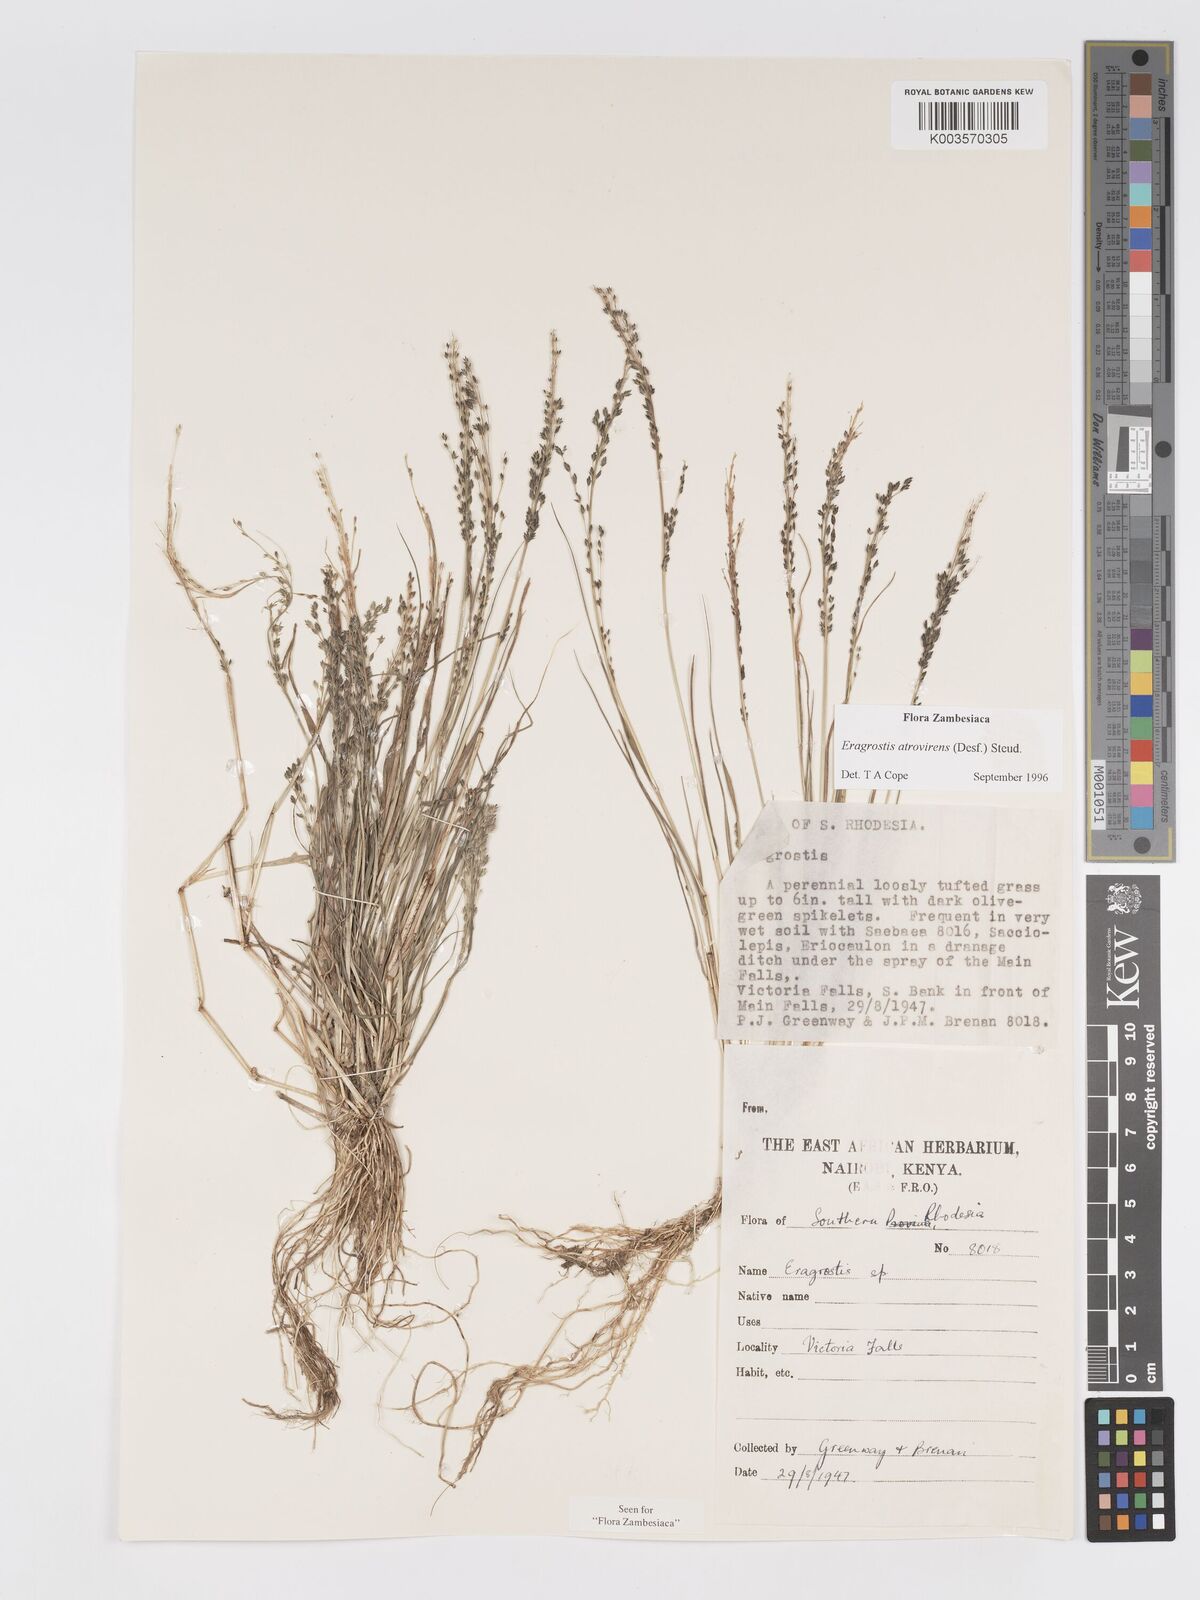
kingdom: Plantae
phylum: Tracheophyta
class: Liliopsida
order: Poales
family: Poaceae
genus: Eragrostis
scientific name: Eragrostis atrovirens
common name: Thalia lovegrass
